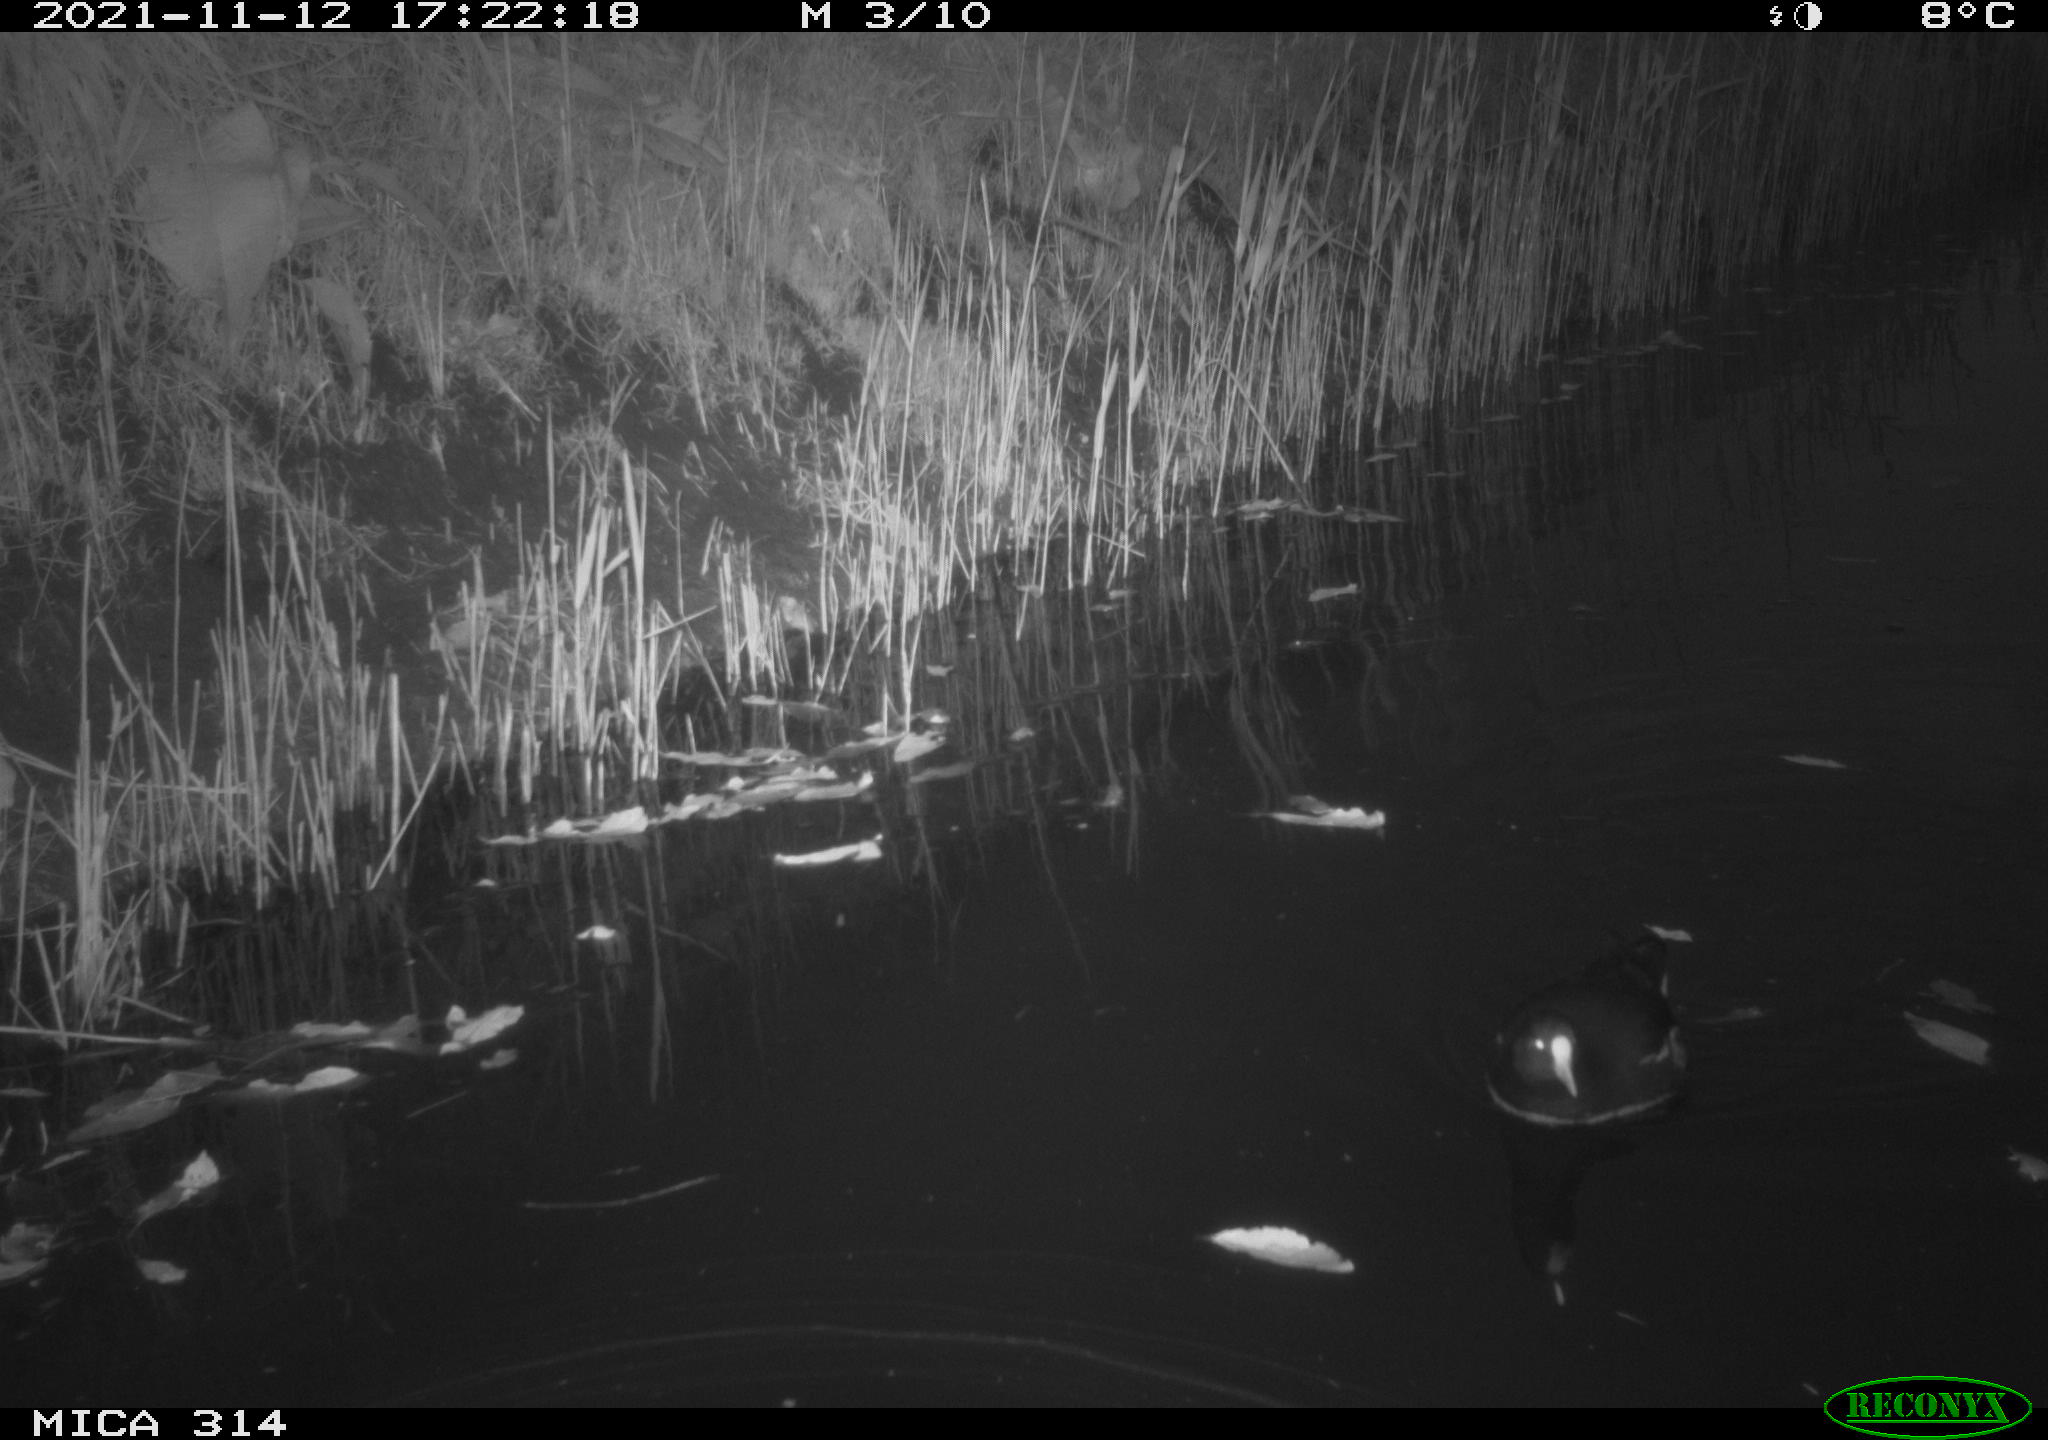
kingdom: Animalia
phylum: Chordata
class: Aves
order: Gruiformes
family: Rallidae
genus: Gallinula
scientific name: Gallinula chloropus
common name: Common moorhen
